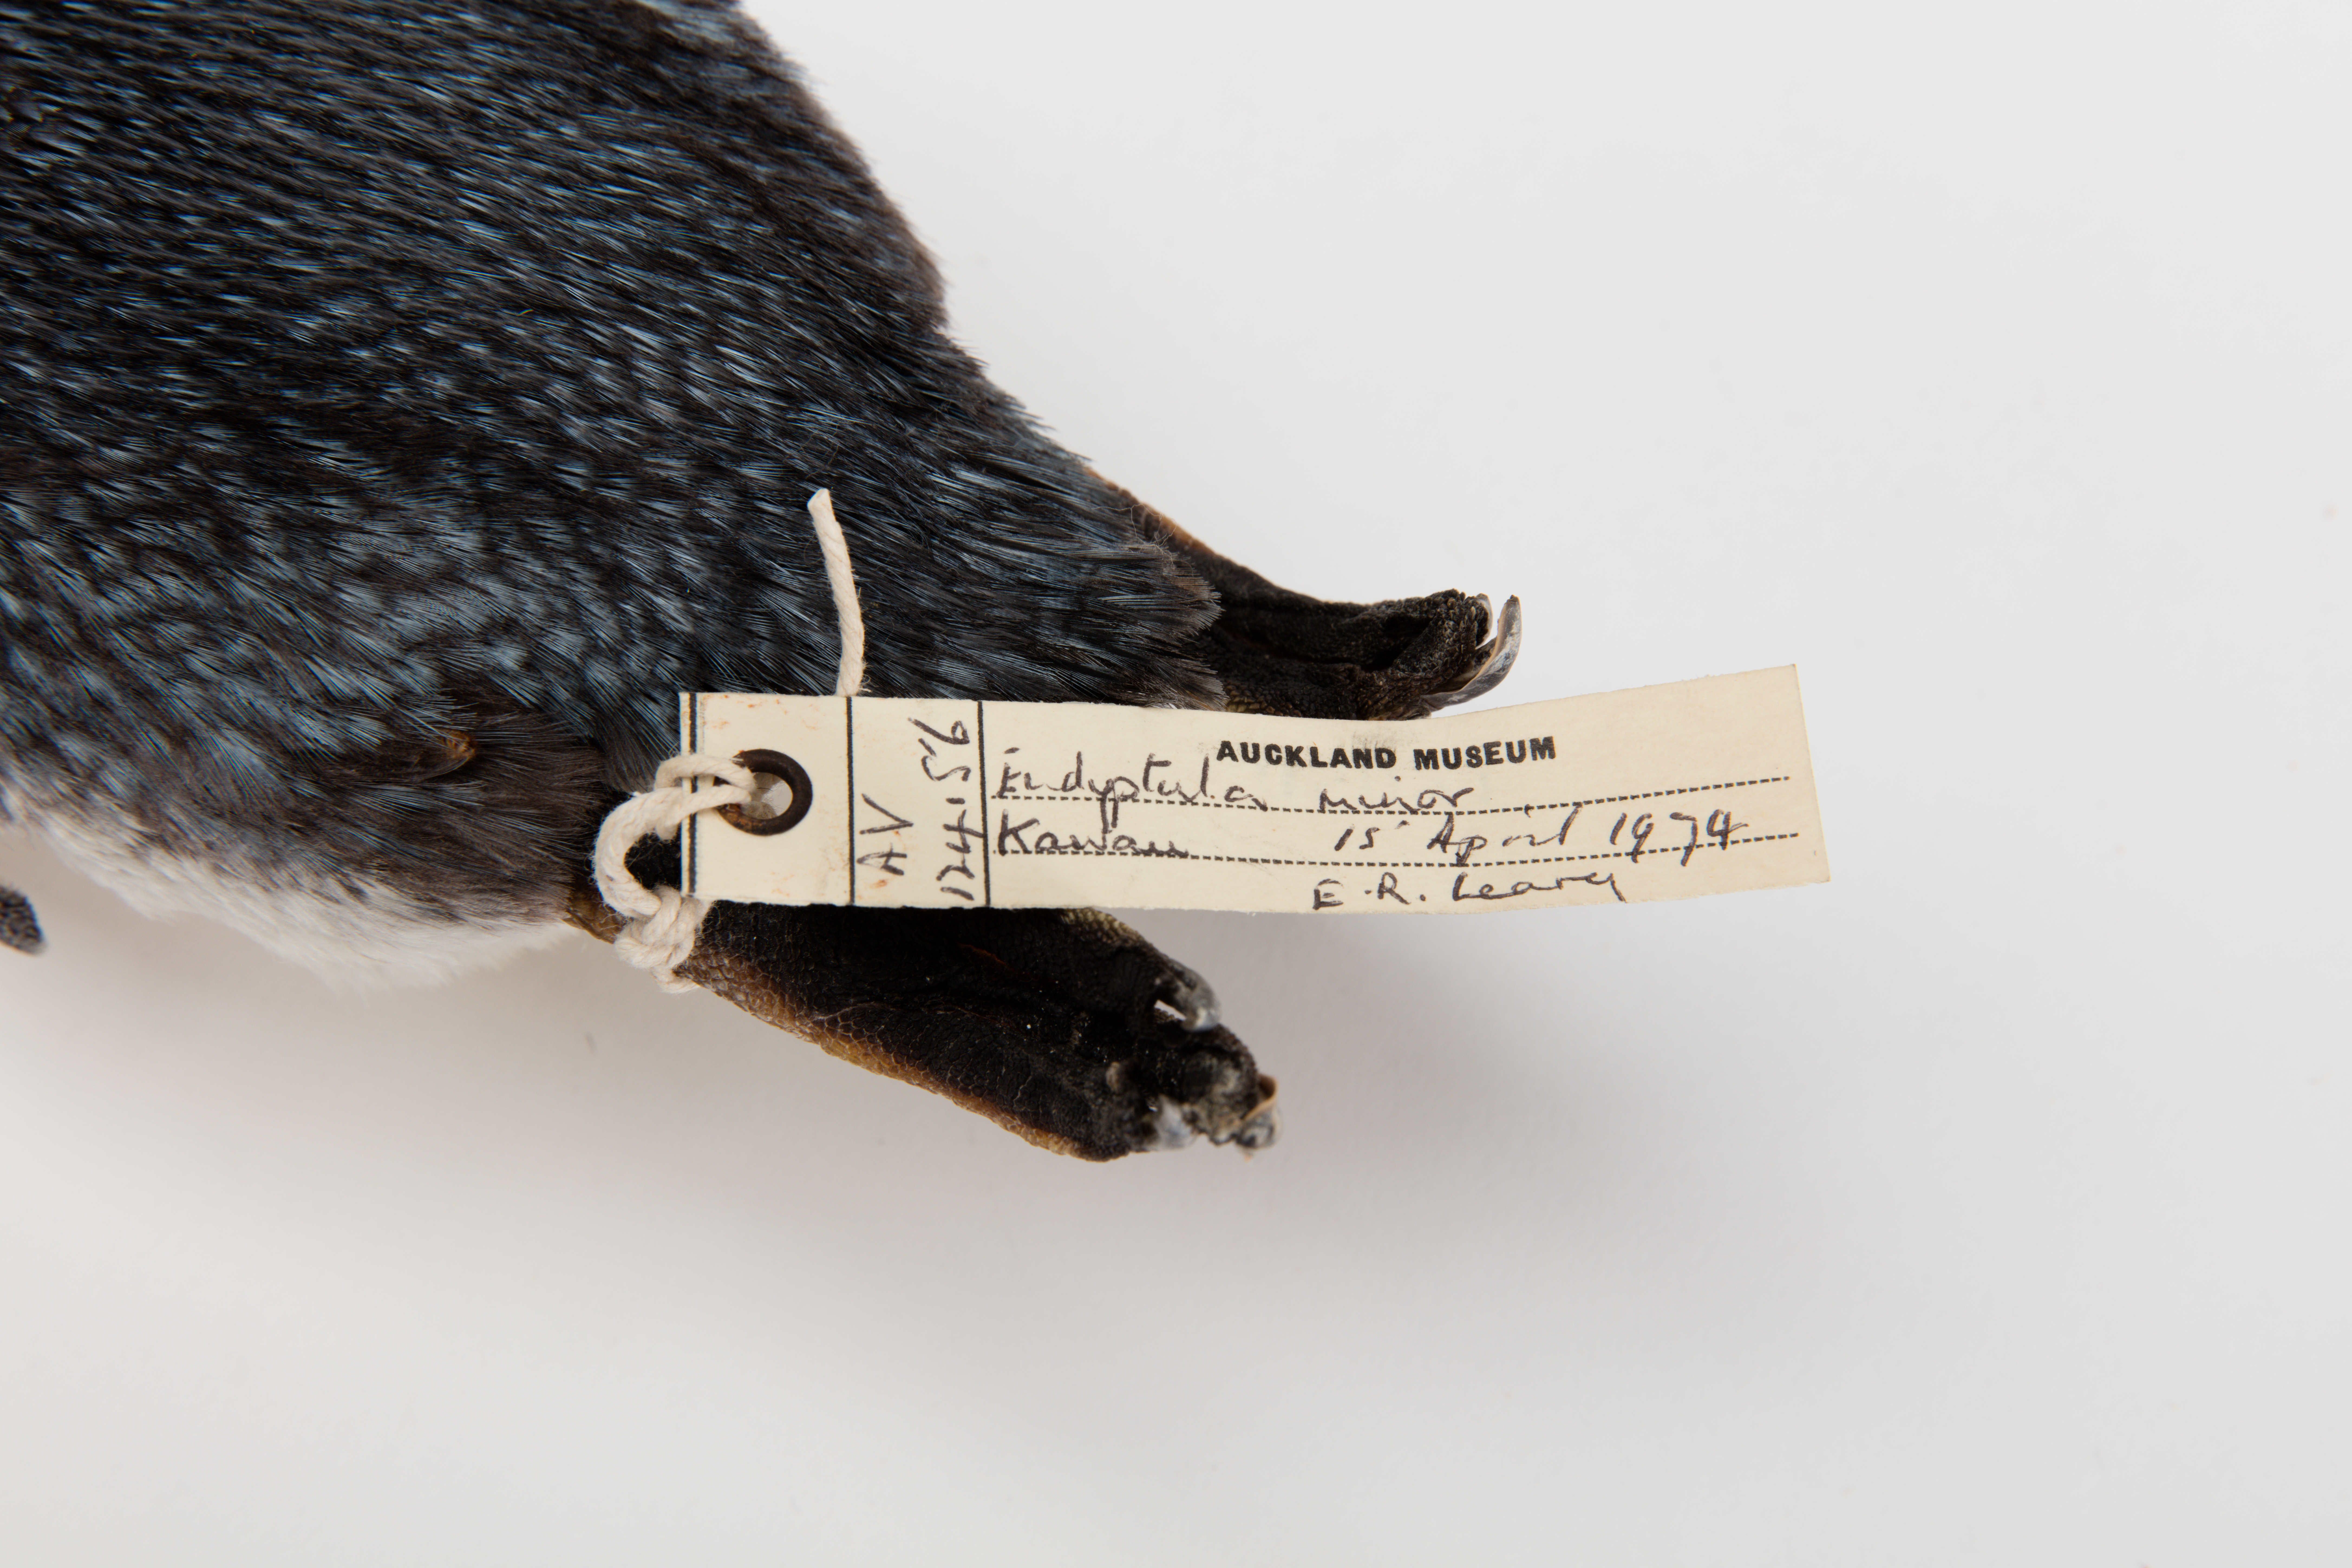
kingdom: Animalia
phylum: Chordata
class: Aves
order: Sphenisciformes
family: Spheniscidae
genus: Eudyptula
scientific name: Eudyptula minor
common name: Little penguin
